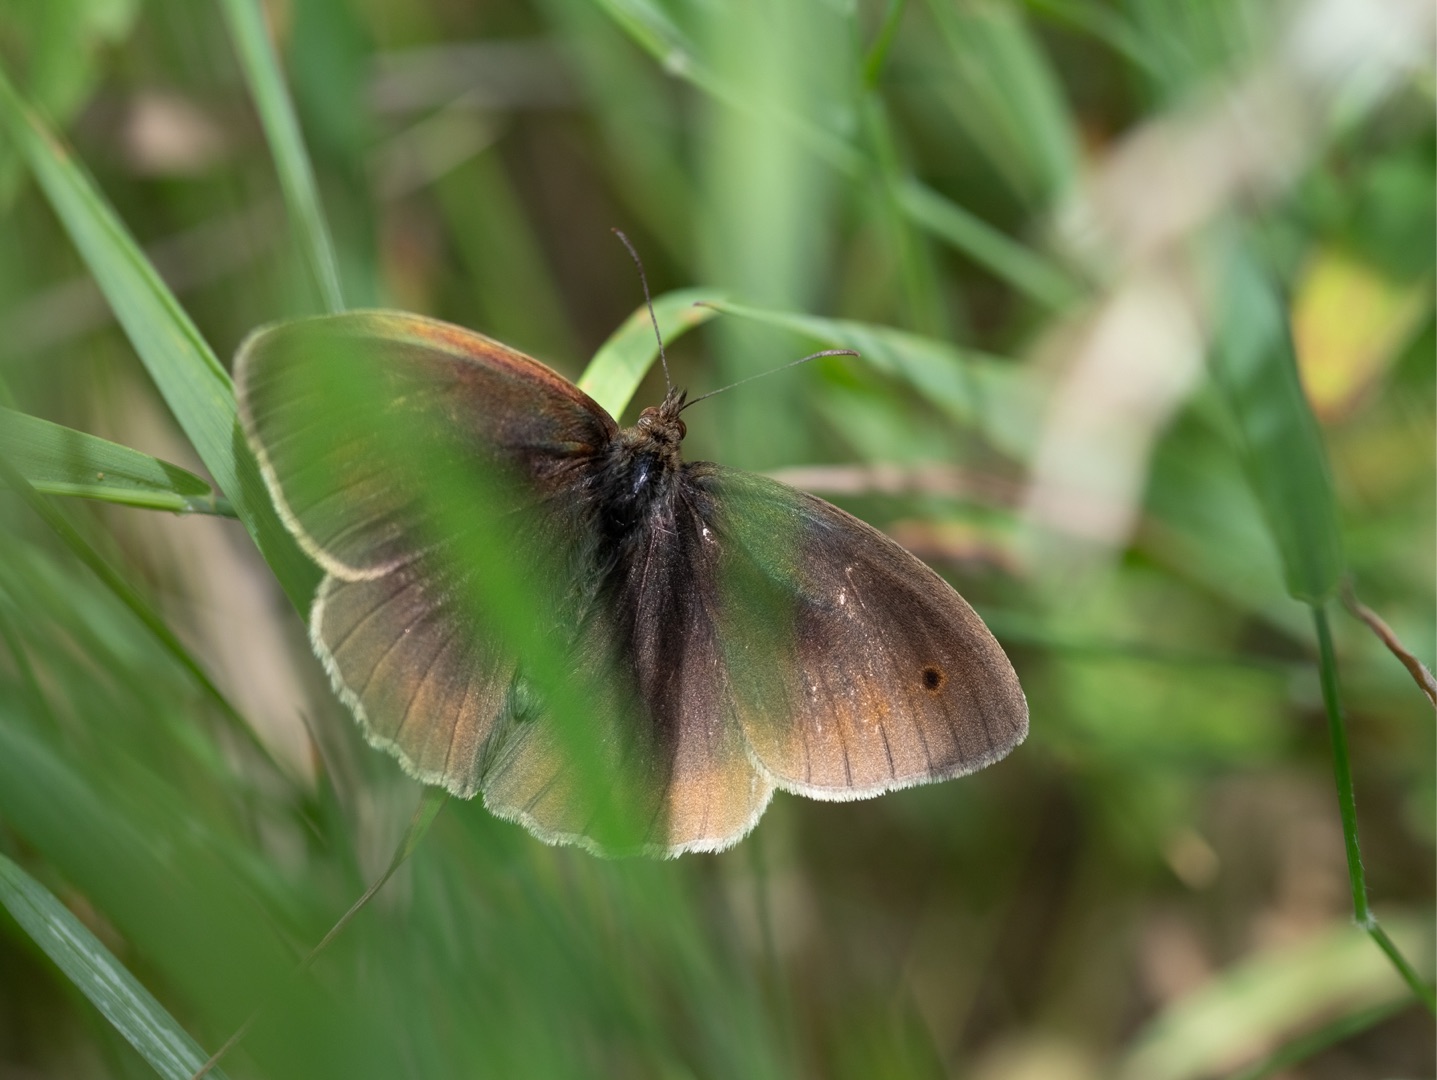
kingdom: Animalia
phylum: Arthropoda
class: Insecta
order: Lepidoptera
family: Nymphalidae
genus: Maniola
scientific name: Maniola jurtina
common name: Græsrandøje
